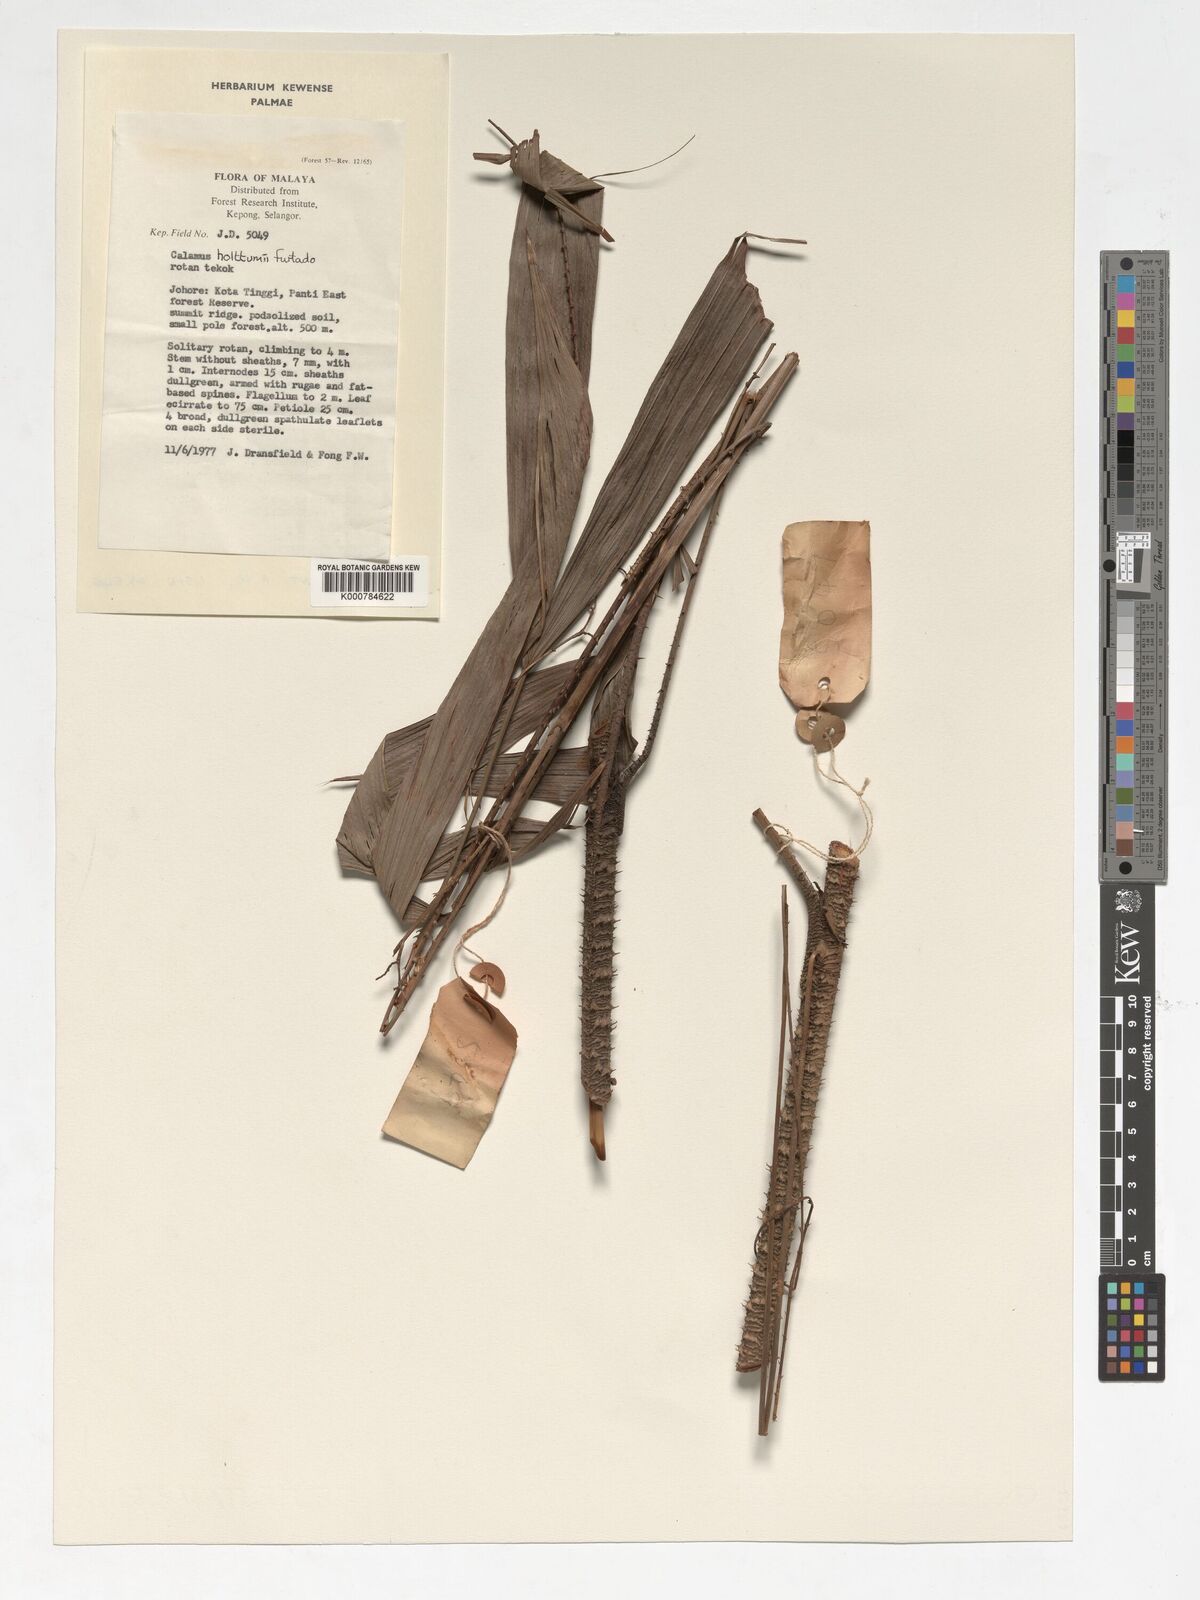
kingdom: Plantae
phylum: Tracheophyta
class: Liliopsida
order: Arecales
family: Arecaceae
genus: Calamus
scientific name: Calamus holttumii
